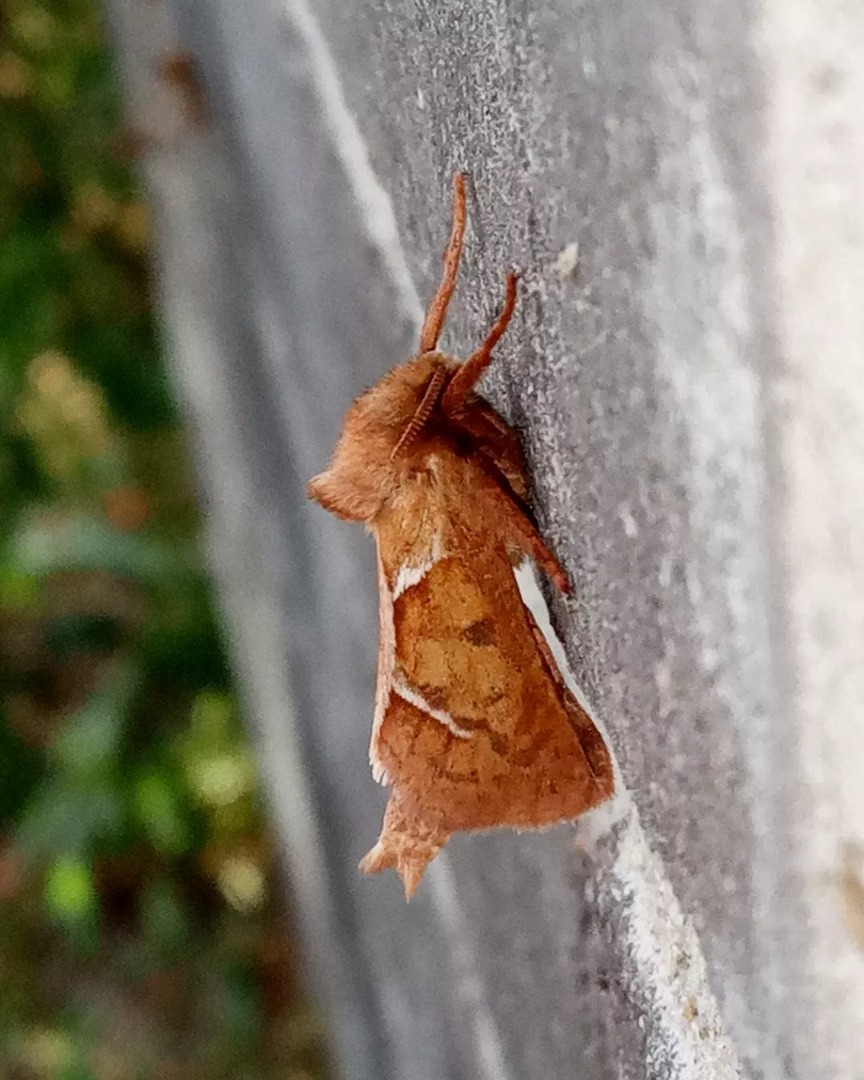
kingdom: Animalia
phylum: Arthropoda
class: Insecta
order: Lepidoptera
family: Hepialidae
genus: Triodia
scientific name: Triodia sylvina
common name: Skræpperodæder
